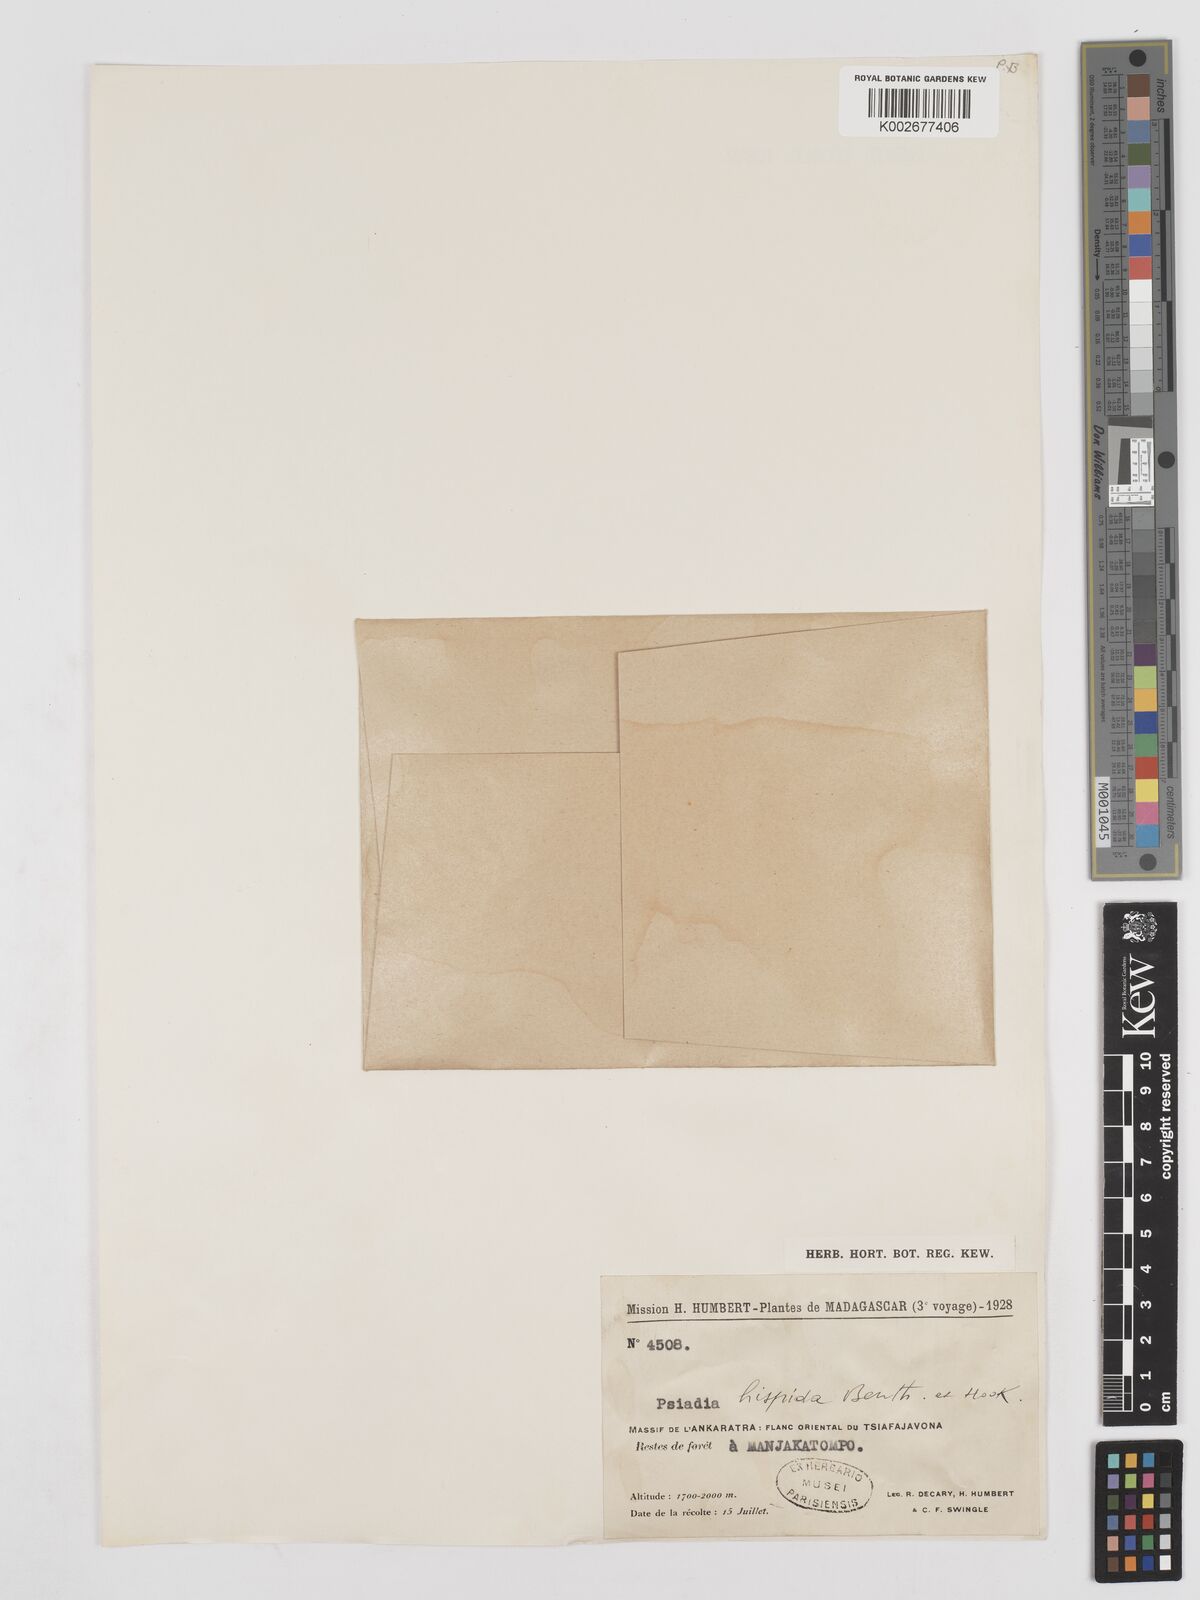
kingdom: Plantae
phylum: Tracheophyta
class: Magnoliopsida
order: Asterales
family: Asteraceae
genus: Psiadia
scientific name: Psiadia hispida
